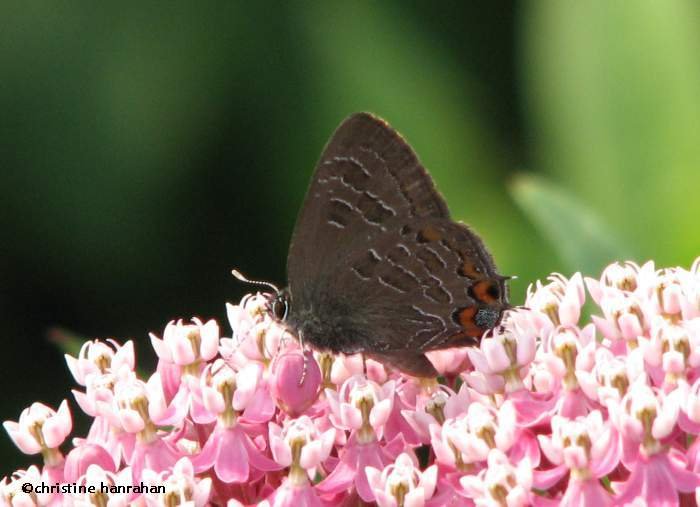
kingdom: Animalia
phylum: Arthropoda
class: Insecta
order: Lepidoptera
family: Lycaenidae
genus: Satyrium
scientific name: Satyrium liparops
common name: Striped Hairstreak
